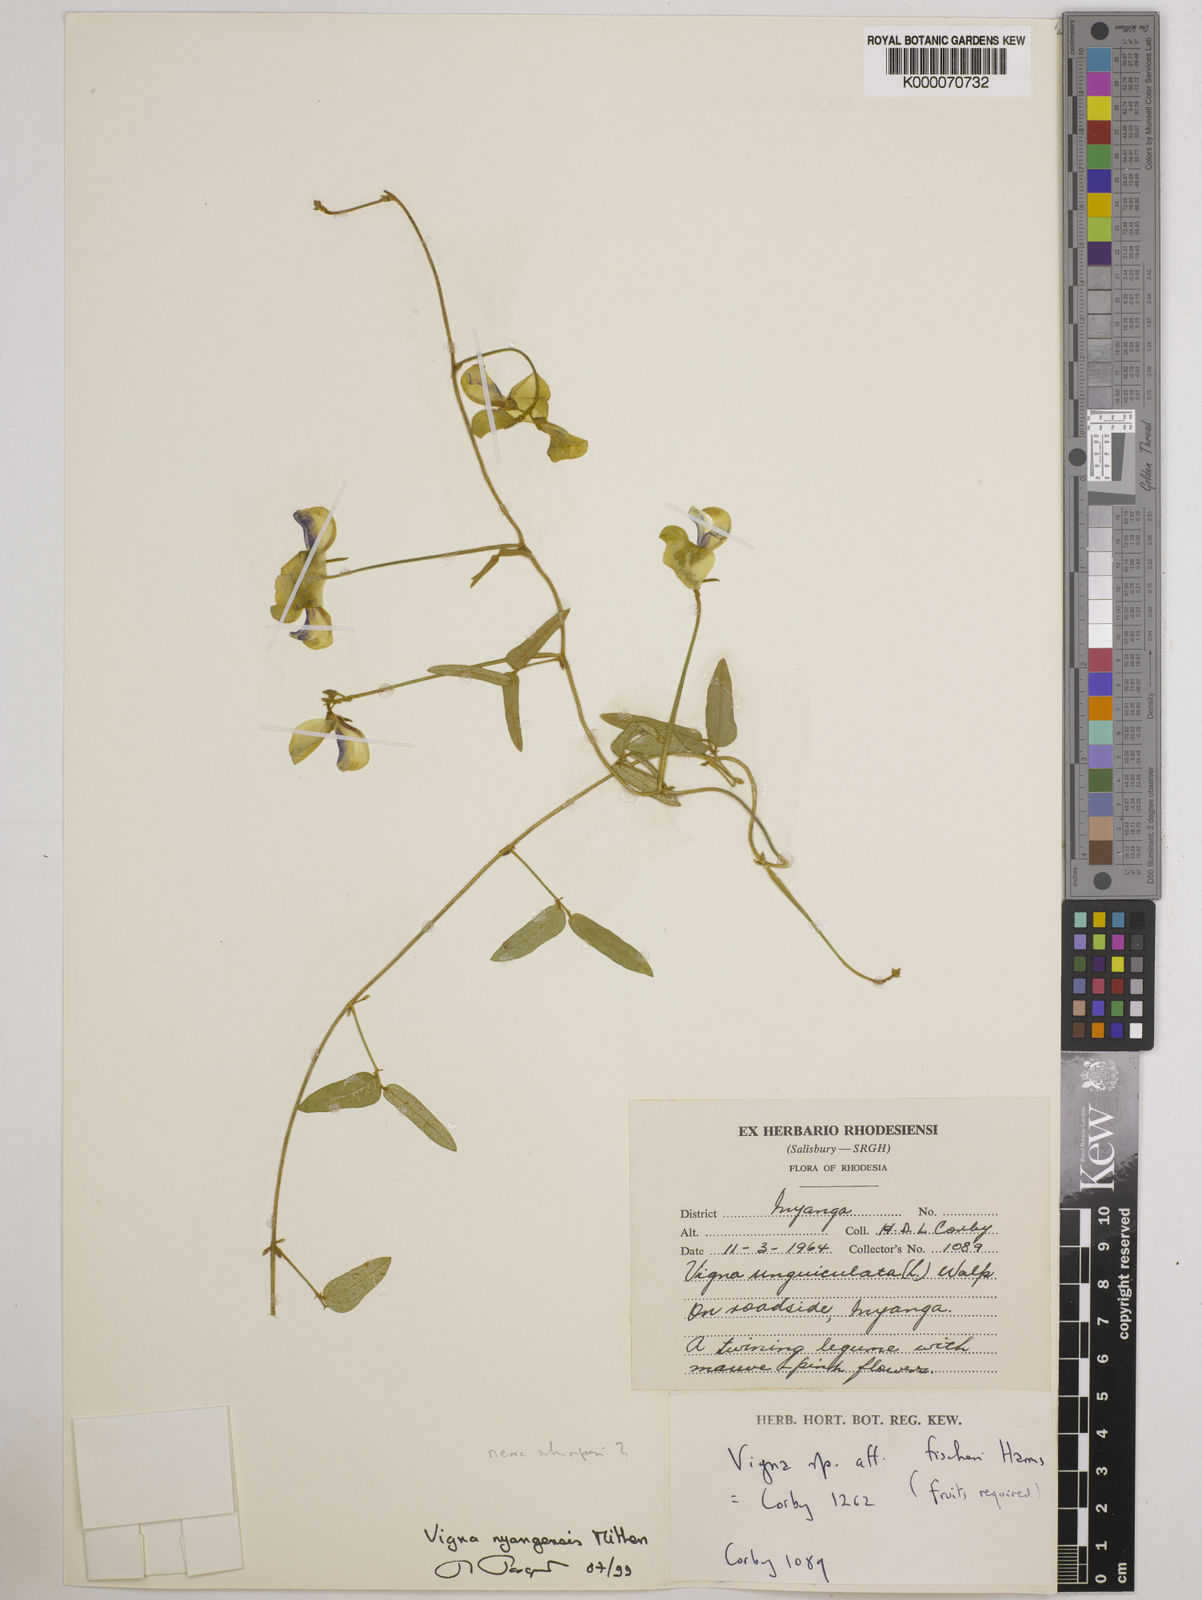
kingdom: Plantae
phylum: Tracheophyta
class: Magnoliopsida
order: Fabales
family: Fabaceae
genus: Vigna
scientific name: Vigna nyangensis
